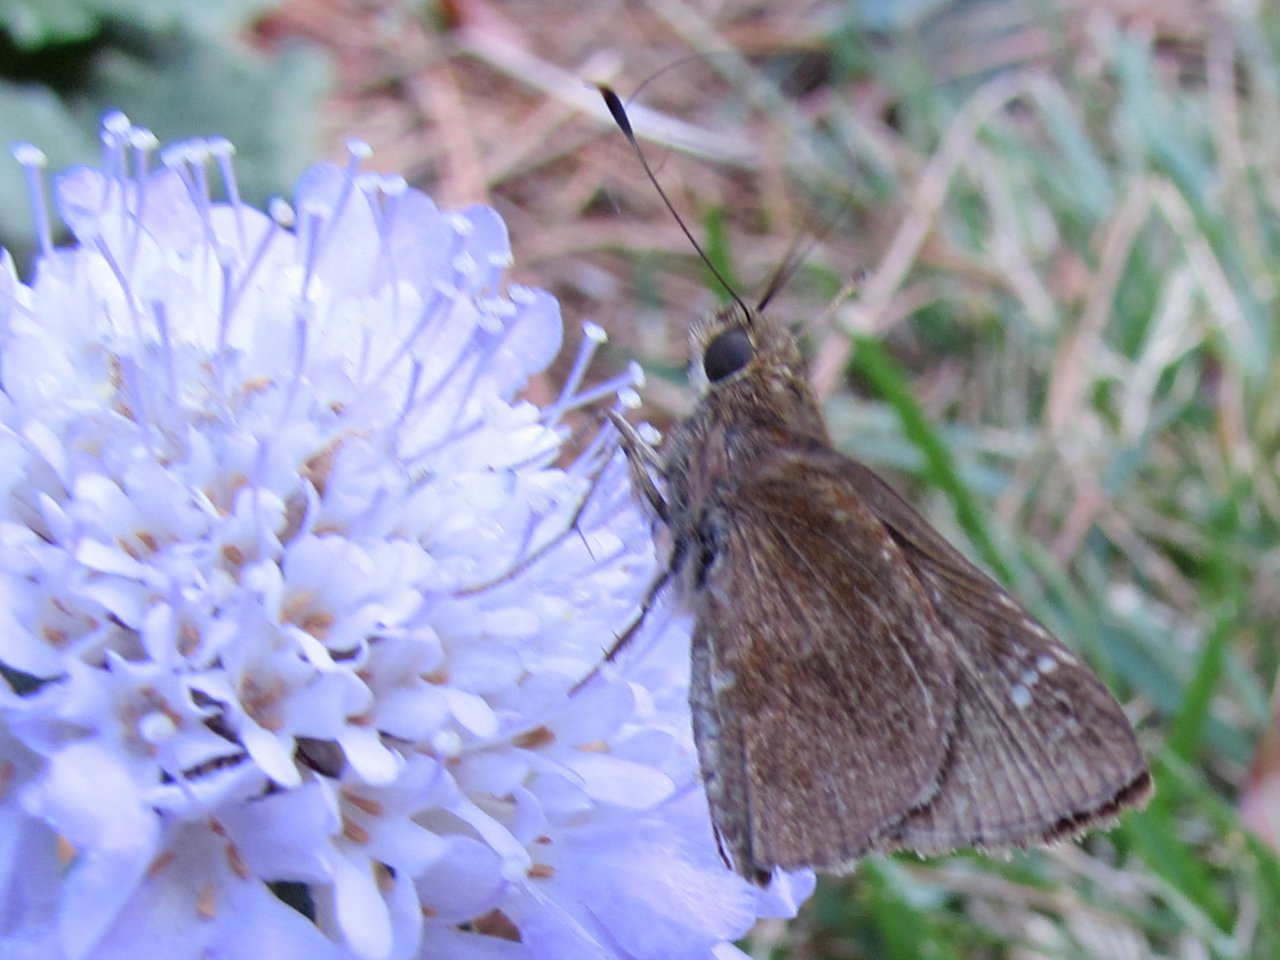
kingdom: Animalia
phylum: Arthropoda
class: Insecta
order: Lepidoptera
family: Hesperiidae
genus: Lerema
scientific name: Lerema accius
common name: Clouded Skipper
